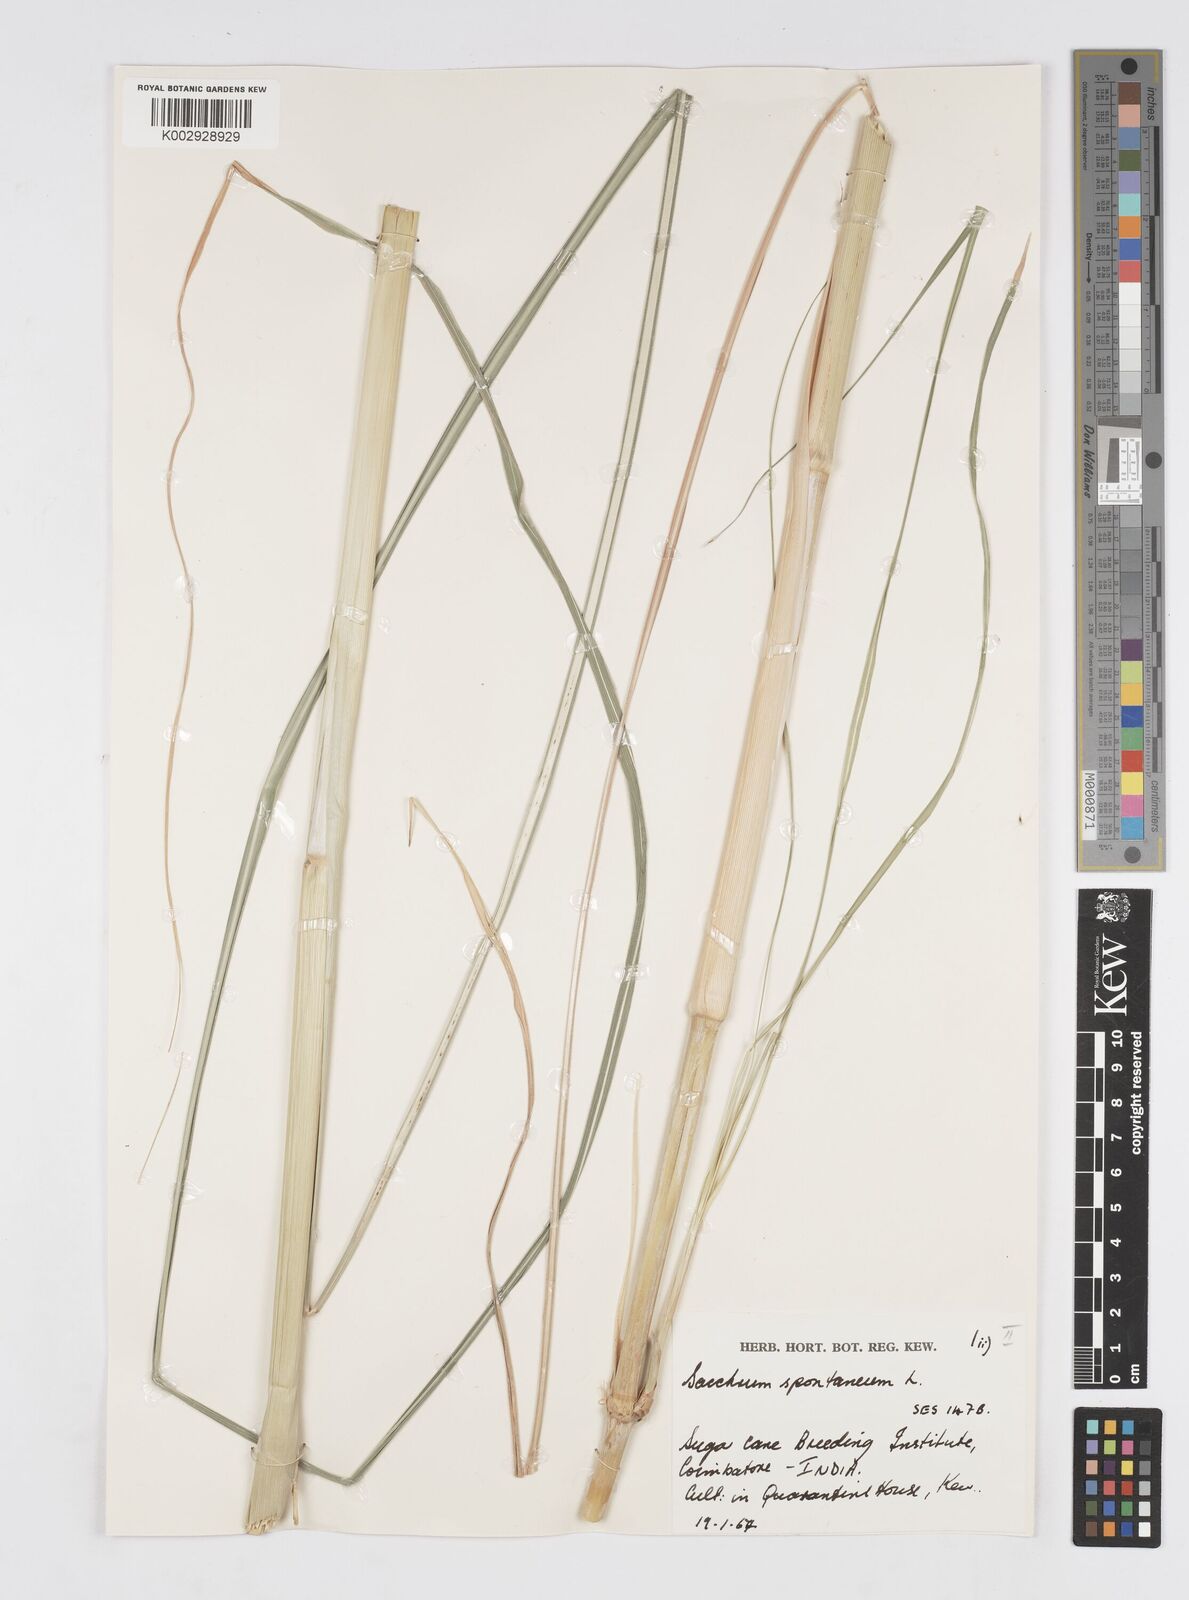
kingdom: Plantae
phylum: Tracheophyta
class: Liliopsida
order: Poales
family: Poaceae
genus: Saccharum
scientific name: Saccharum spontaneum
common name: Wild sugarcane
